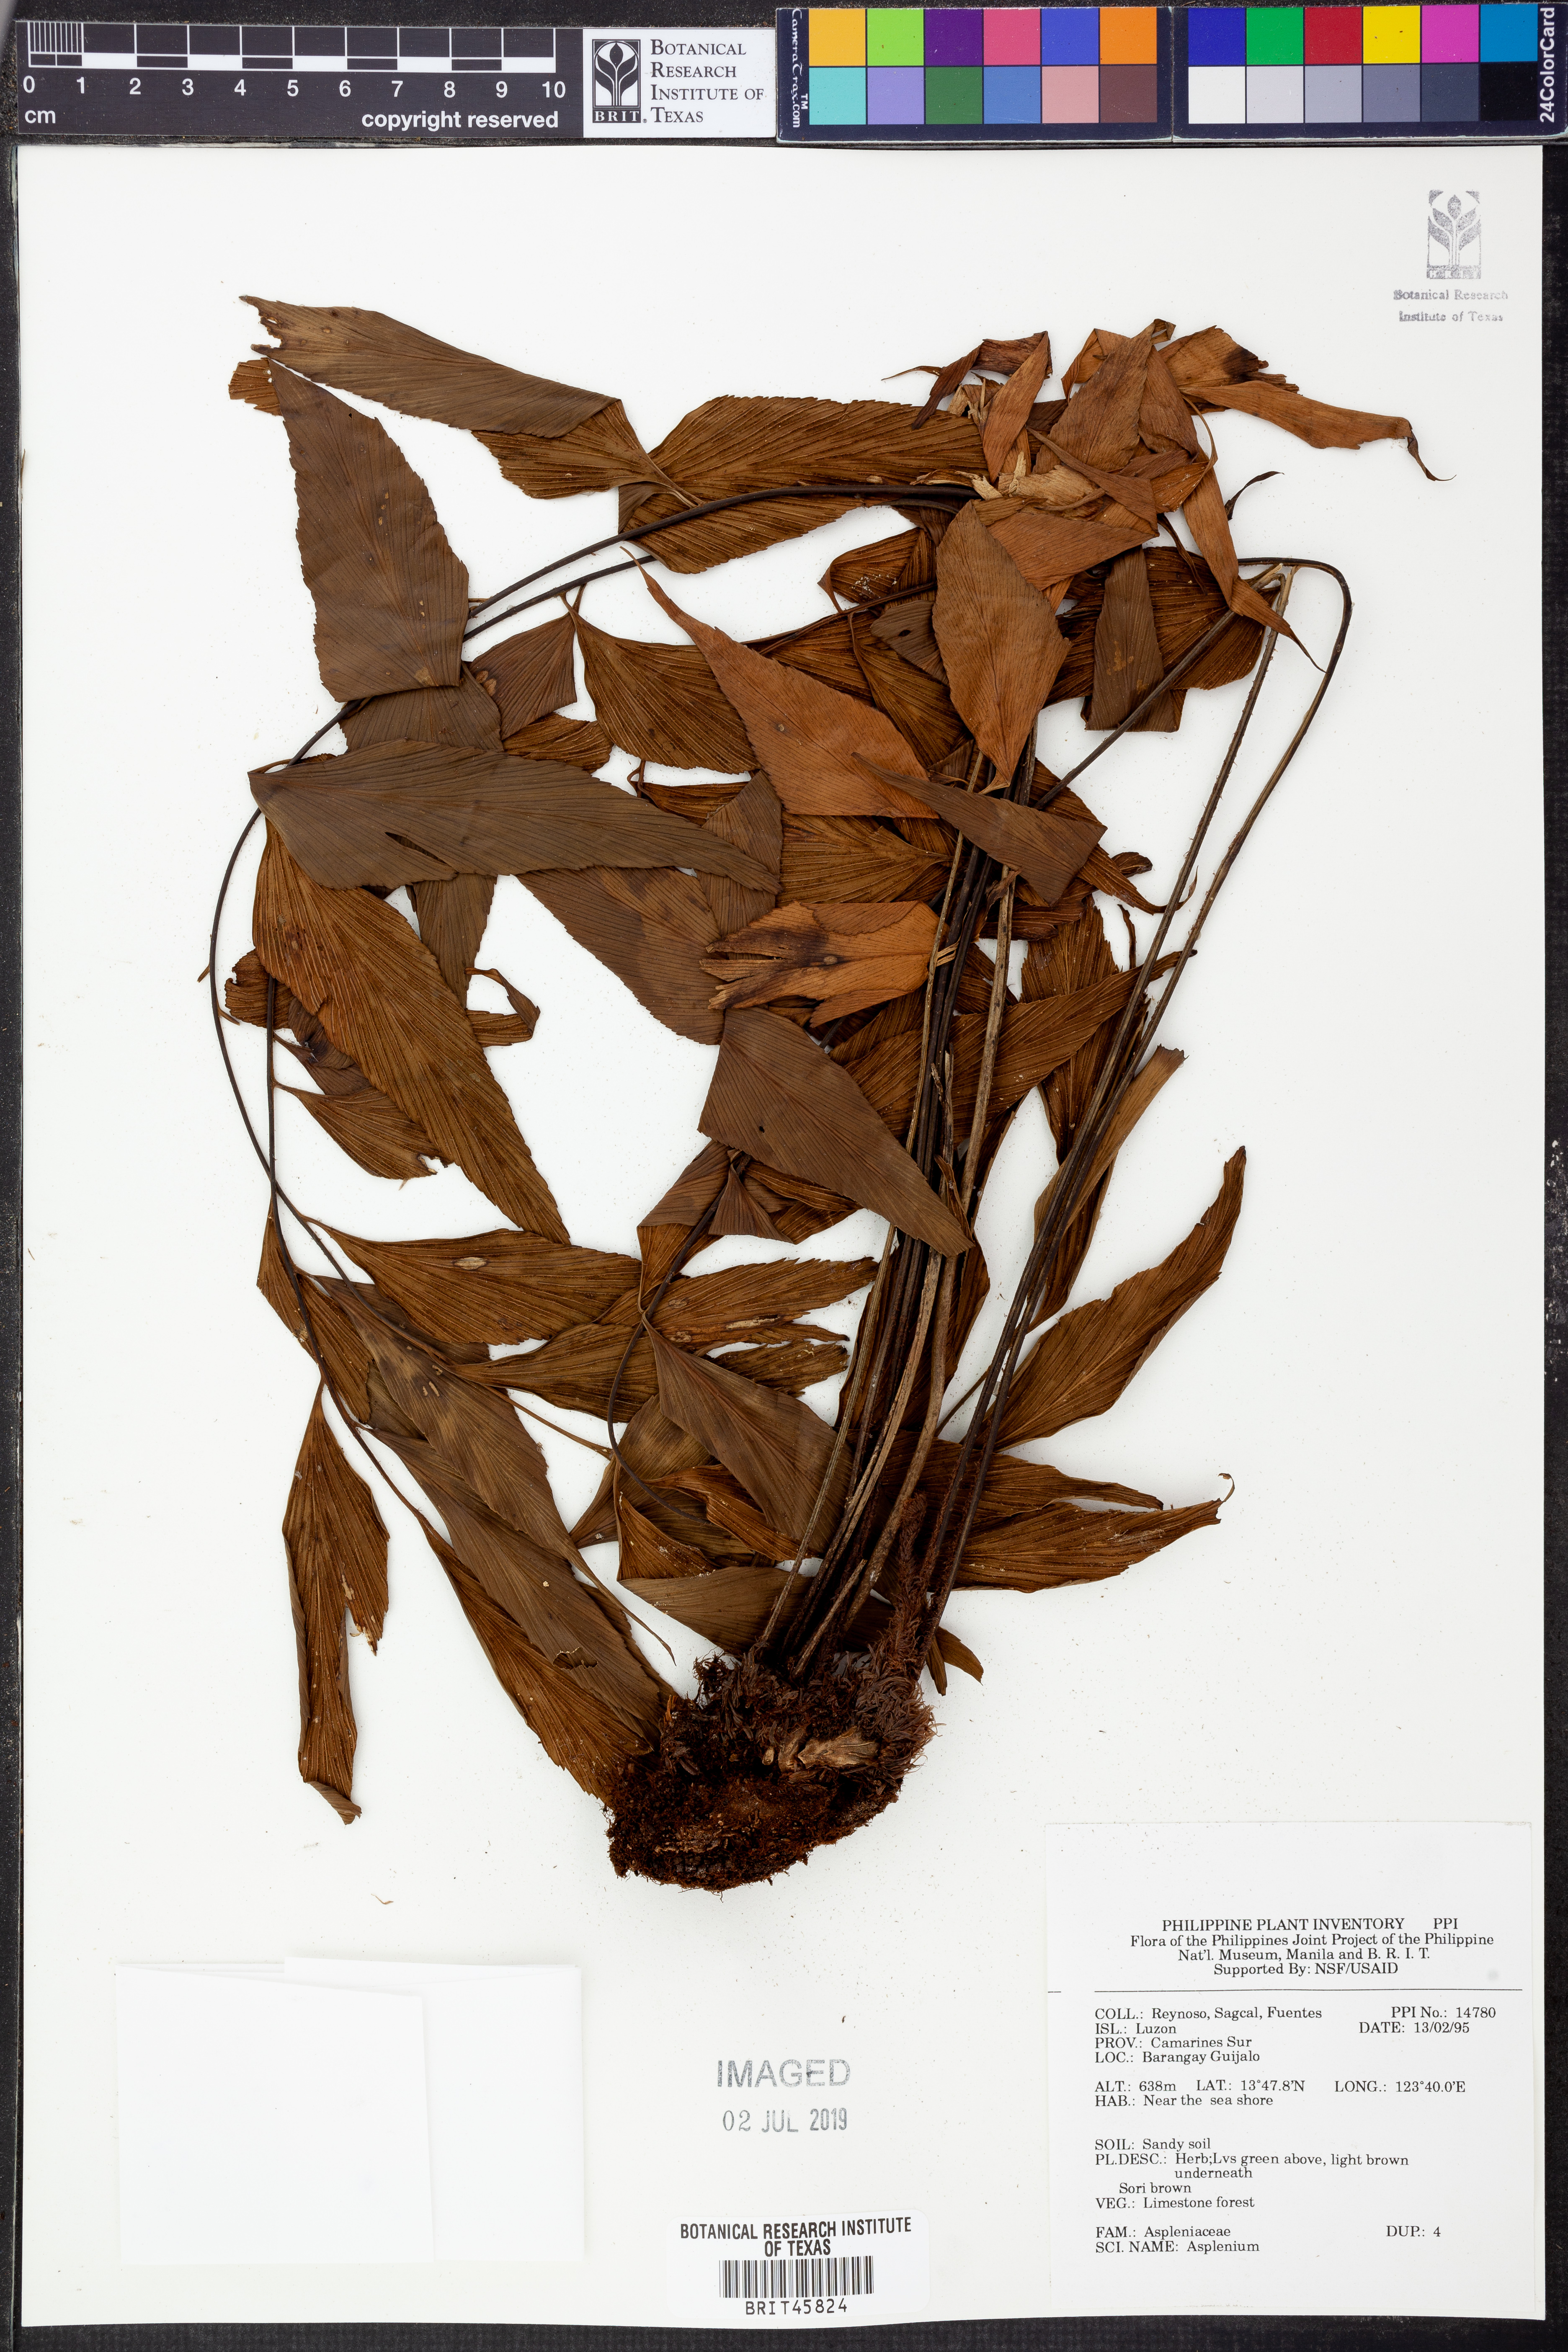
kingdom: Plantae
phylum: Tracheophyta
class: Polypodiopsida
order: Polypodiales
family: Aspleniaceae
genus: Asplenium
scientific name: Asplenium
